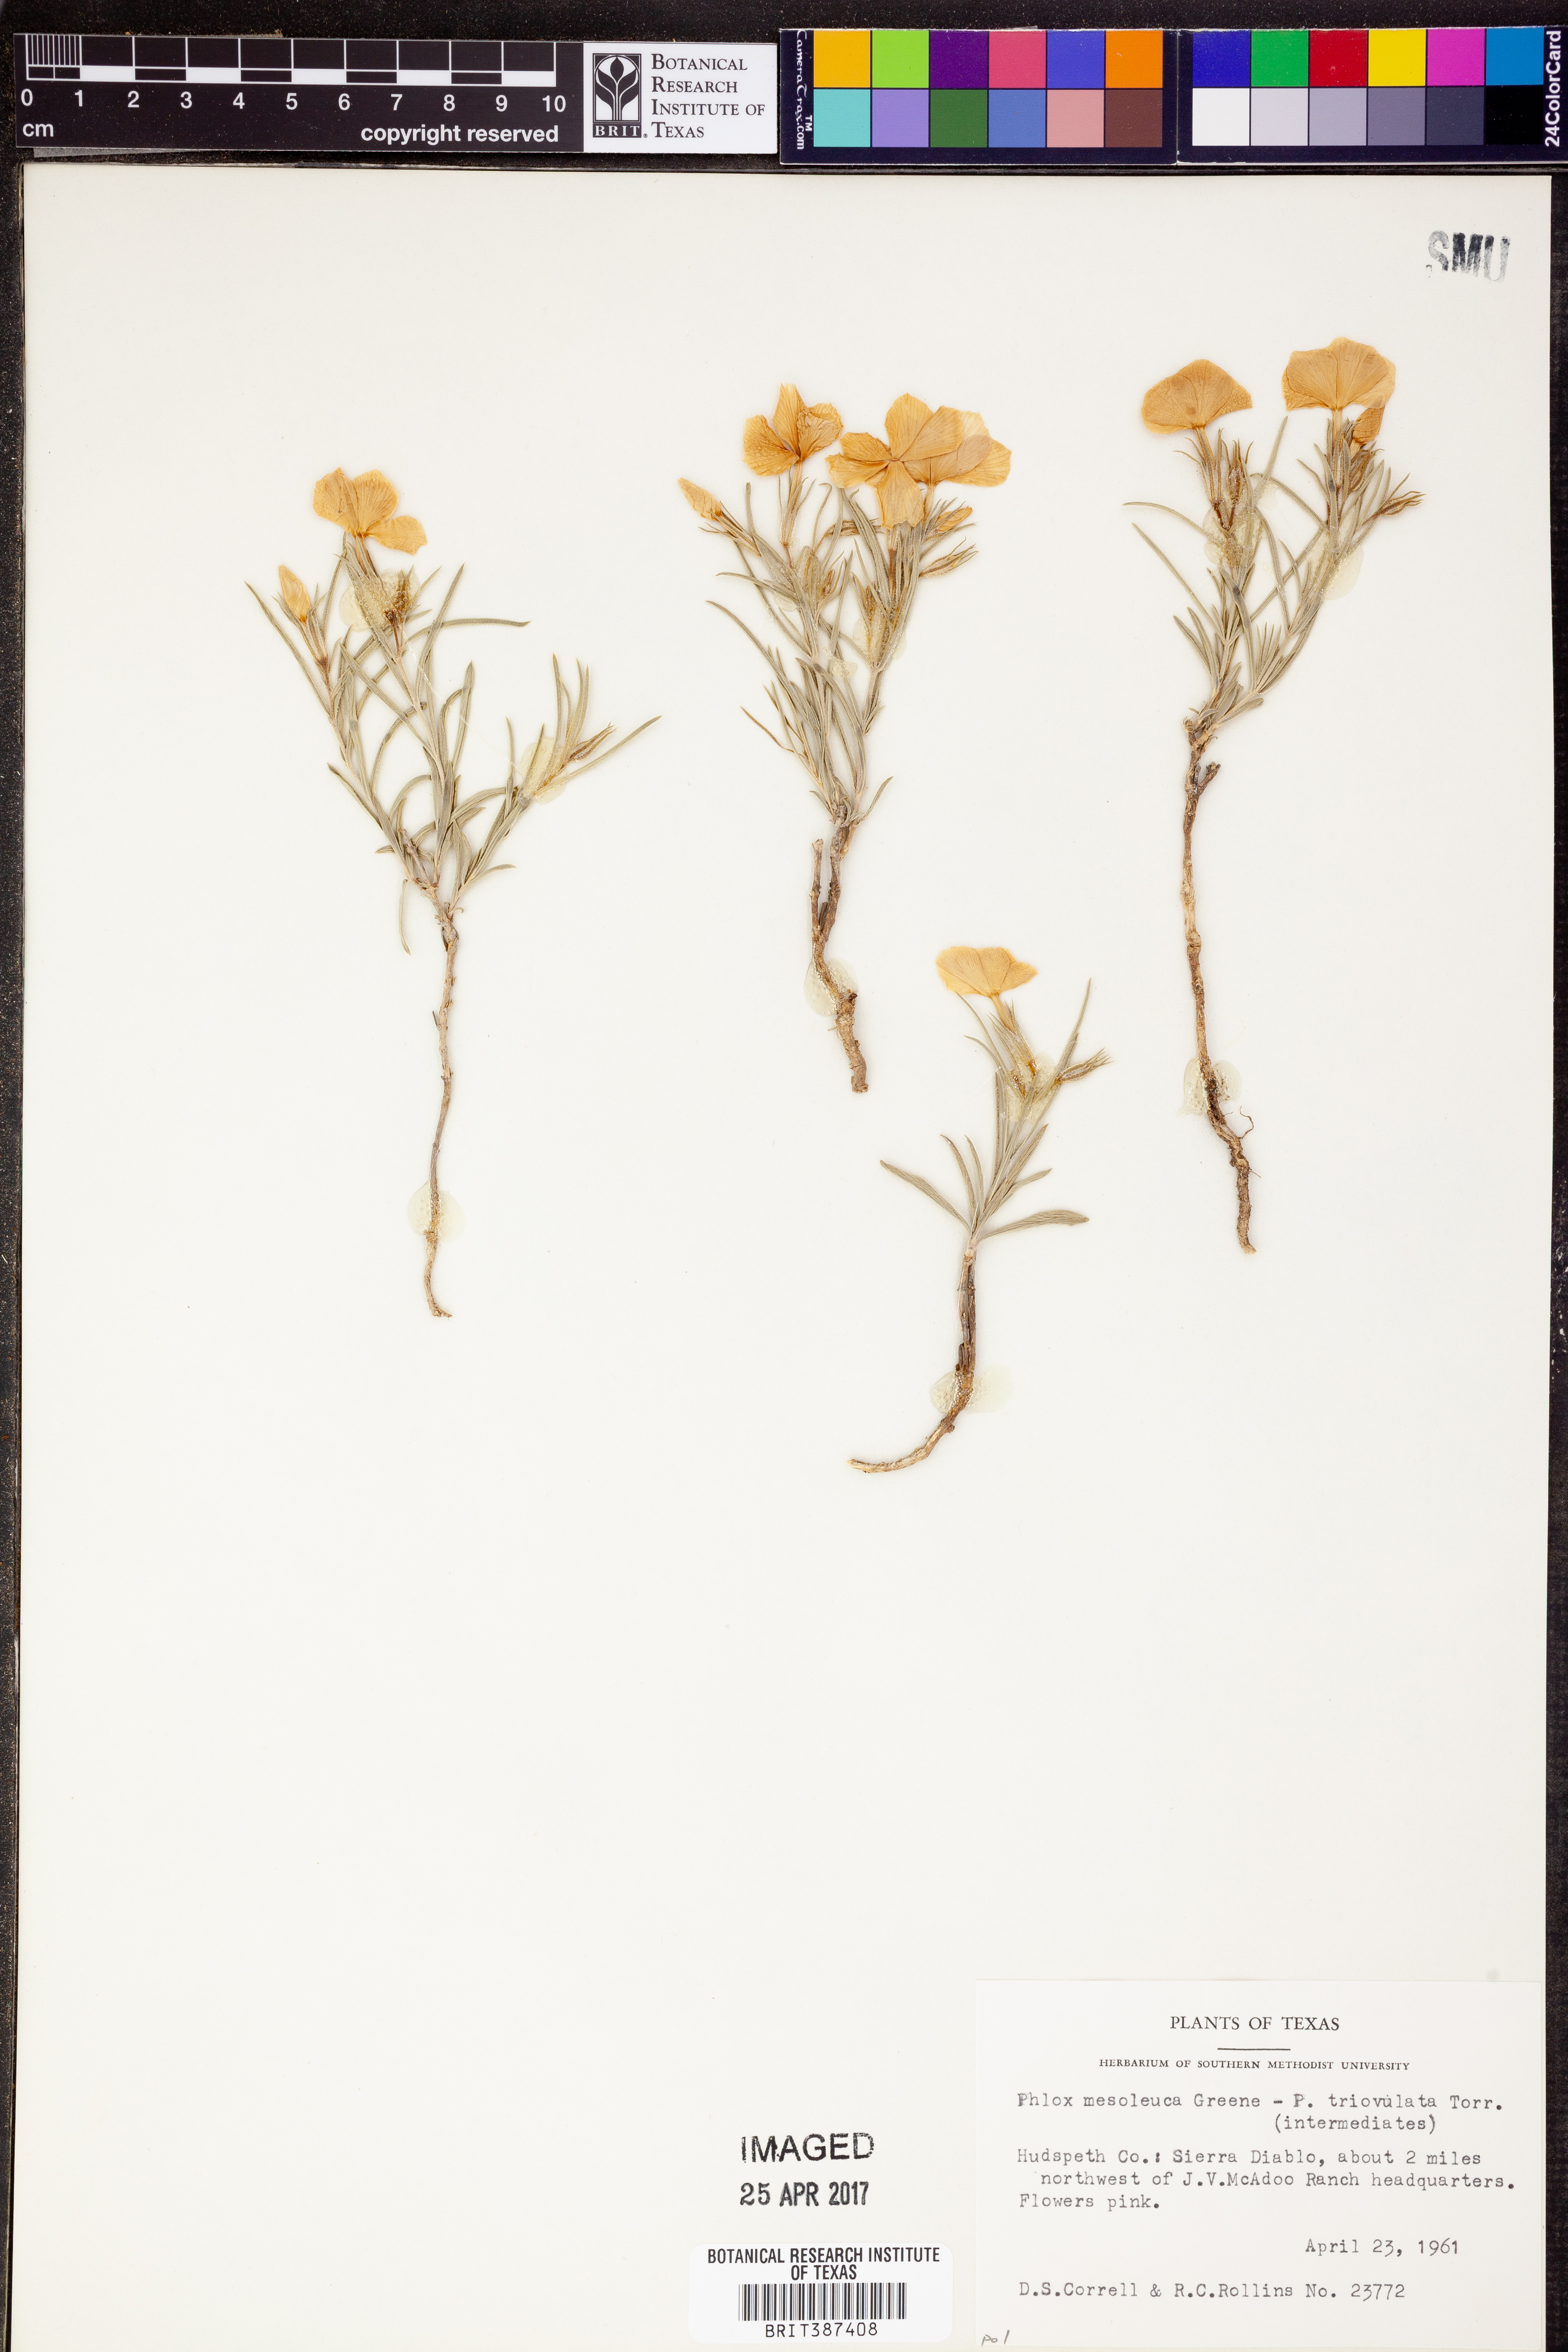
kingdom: Plantae
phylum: Tracheophyta
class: Magnoliopsida
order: Ericales
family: Polemoniaceae
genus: Phlox
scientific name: Phlox mesoleuca
